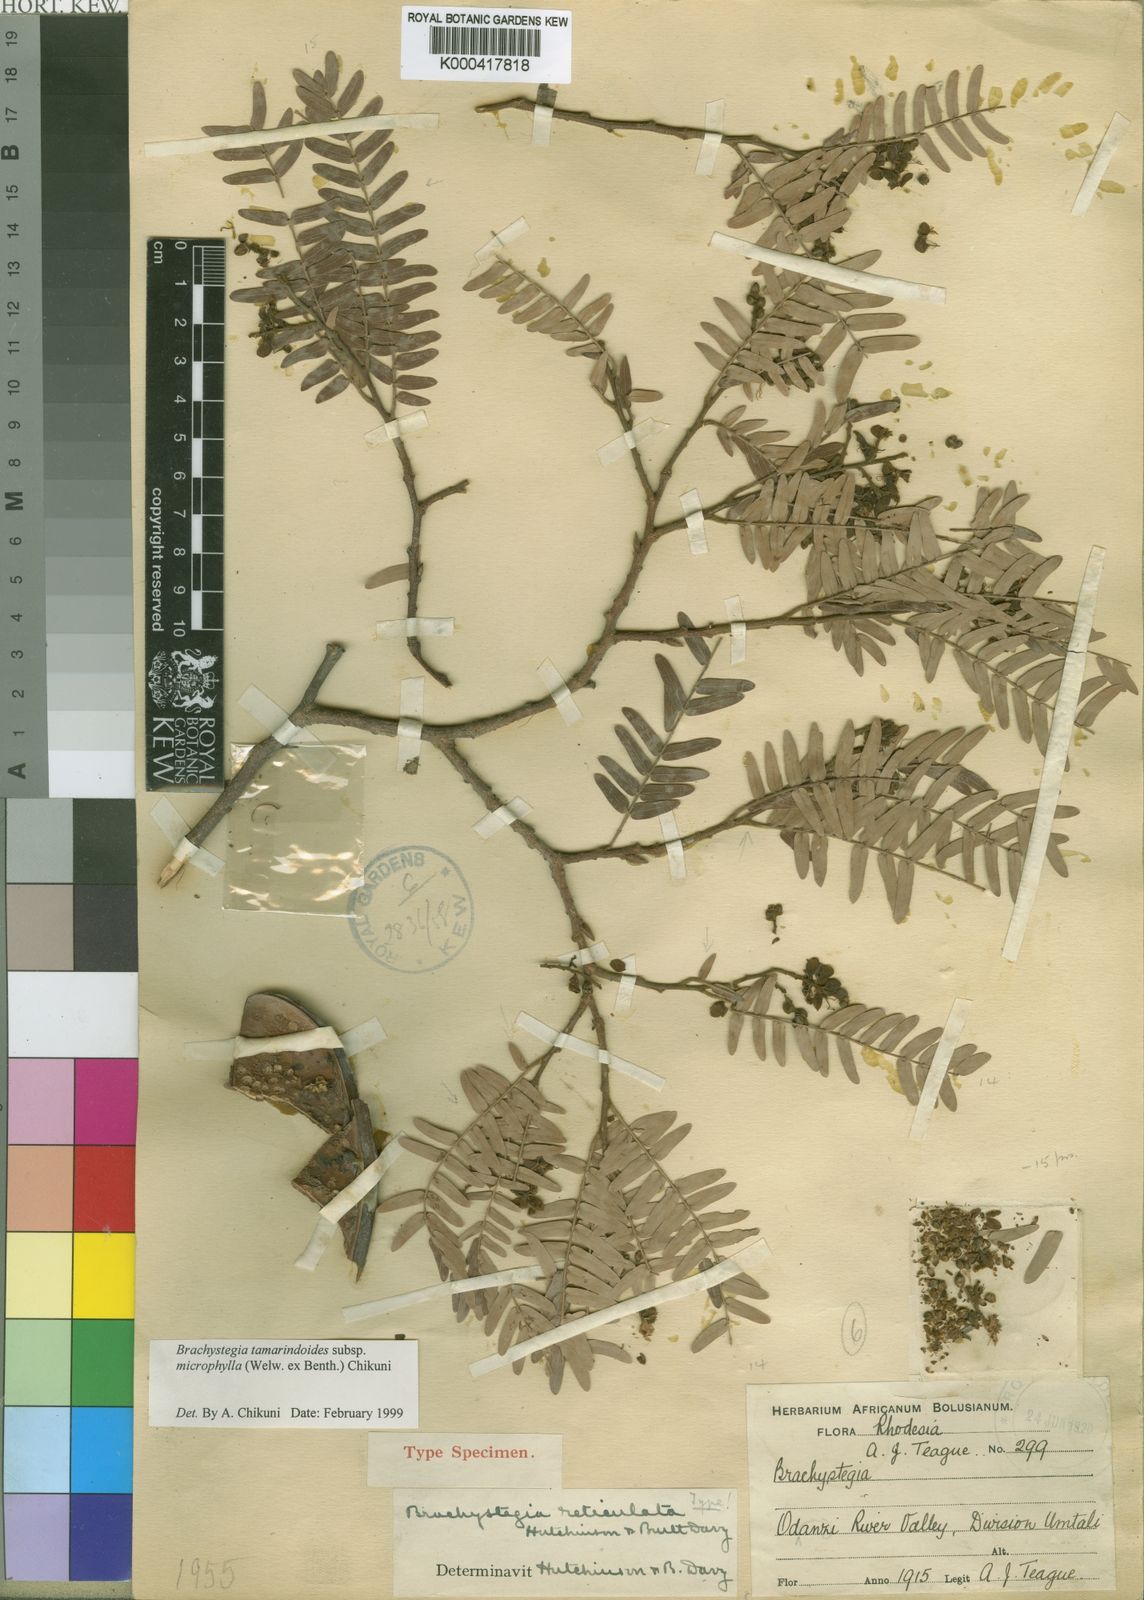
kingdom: Plantae
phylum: Tracheophyta
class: Magnoliopsida
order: Fabales
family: Fabaceae
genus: Brachystegia
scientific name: Brachystegia tamarindoides
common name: Mountain acacia
